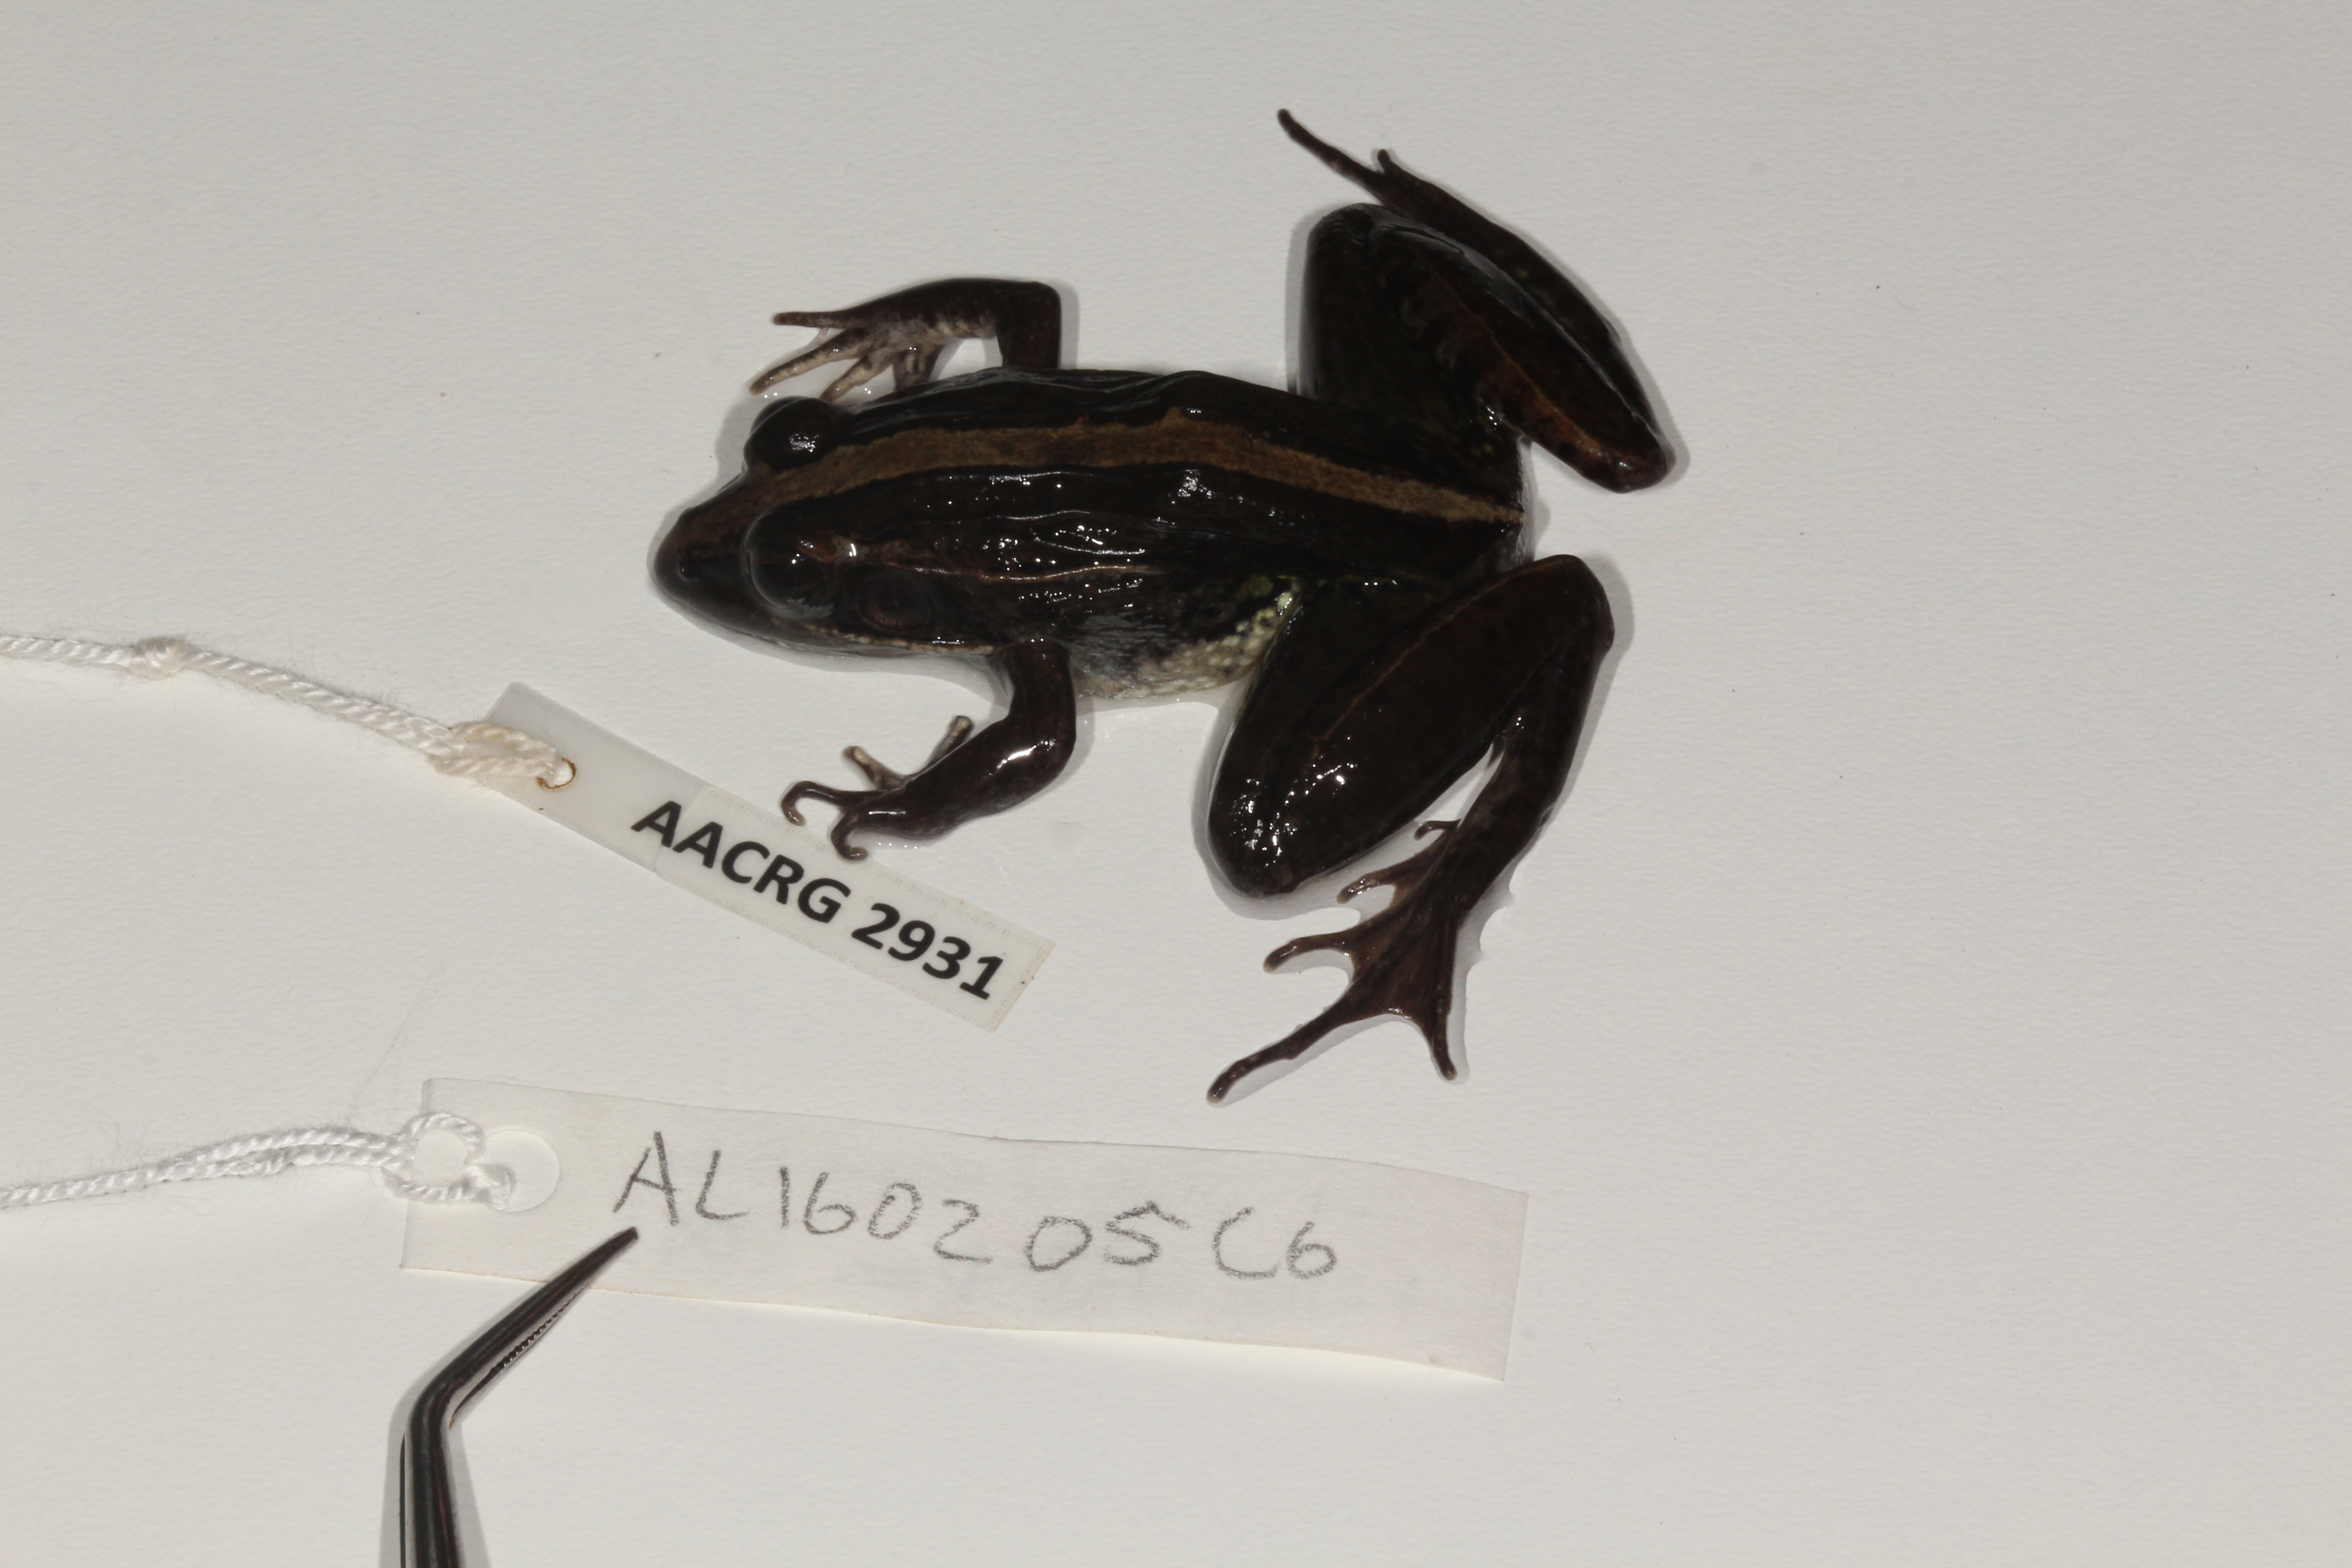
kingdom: Animalia
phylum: Chordata
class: Amphibia
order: Anura
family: Ptychadenidae
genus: Ptychadena
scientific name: Ptychadena mossambica
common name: Mozambique ridged frog
